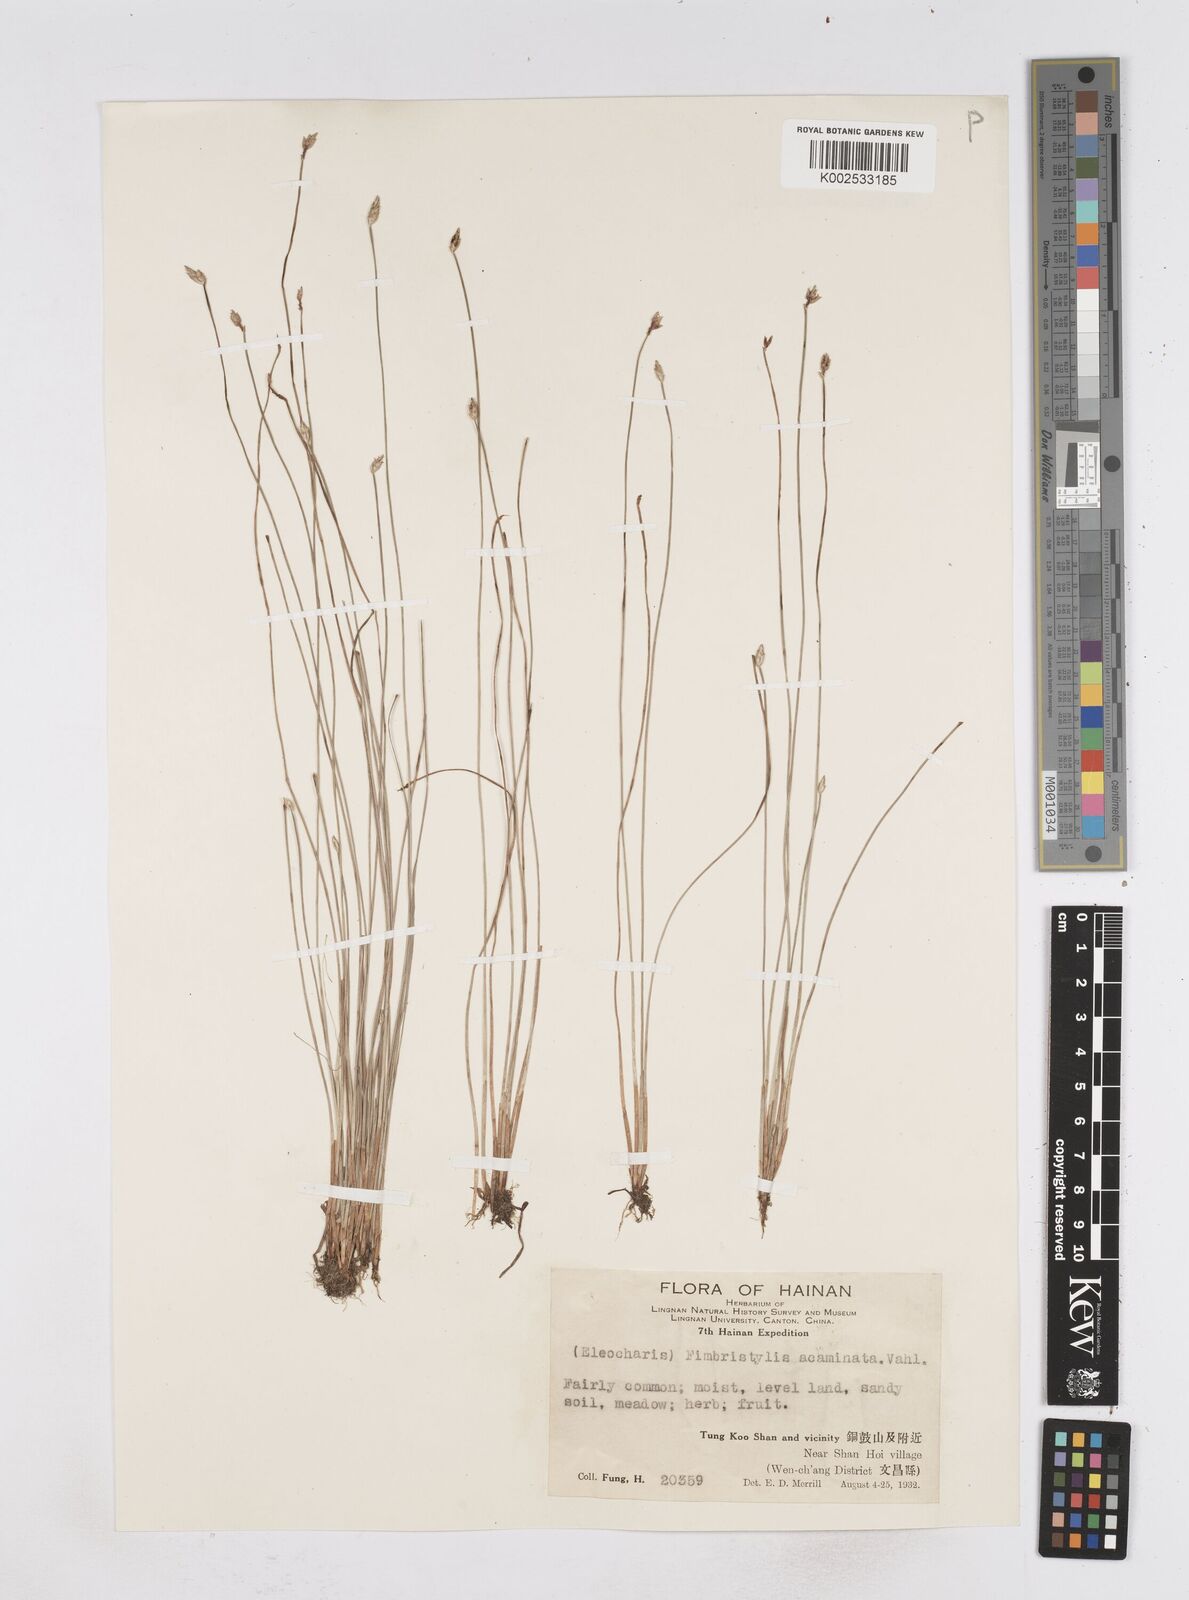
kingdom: Plantae
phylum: Tracheophyta
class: Liliopsida
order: Poales
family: Cyperaceae
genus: Fimbristylis
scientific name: Fimbristylis acuminata
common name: Pointed fimbristylis
